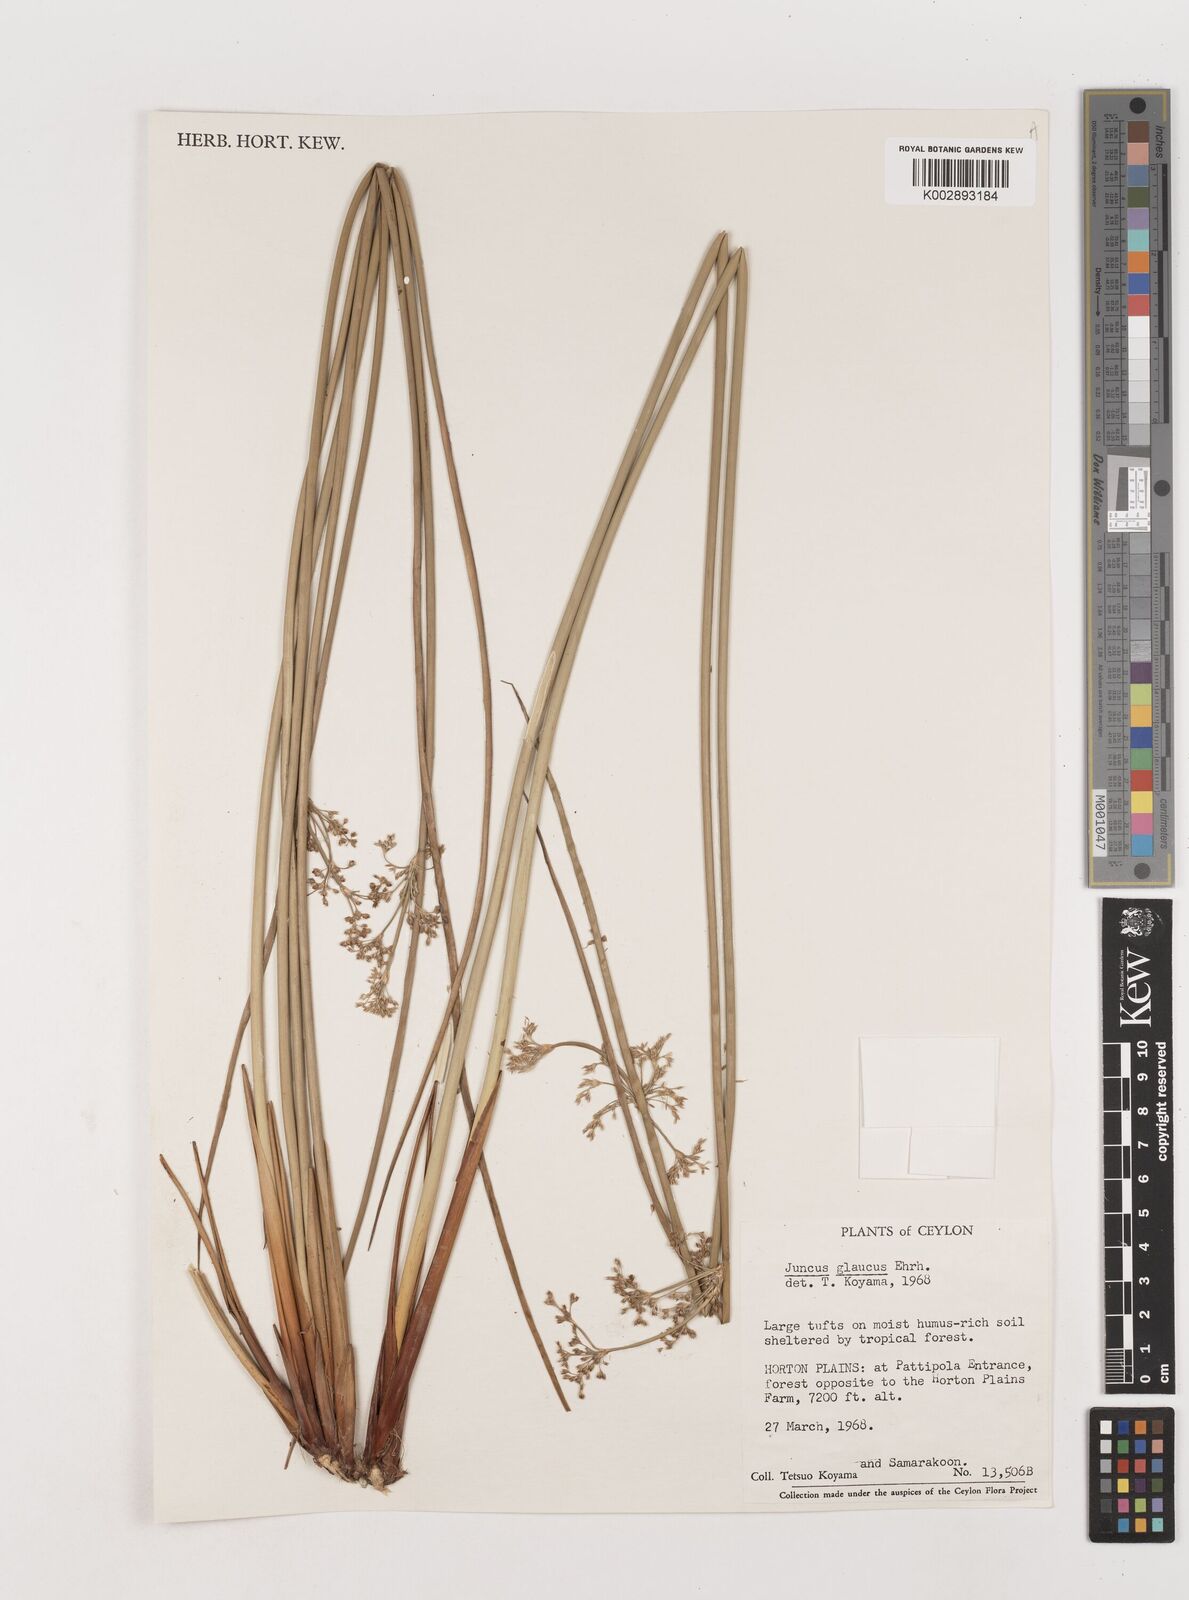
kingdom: Plantae
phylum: Tracheophyta
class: Liliopsida
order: Poales
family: Juncaceae
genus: Juncus
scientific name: Juncus inflexus
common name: Hard rush
